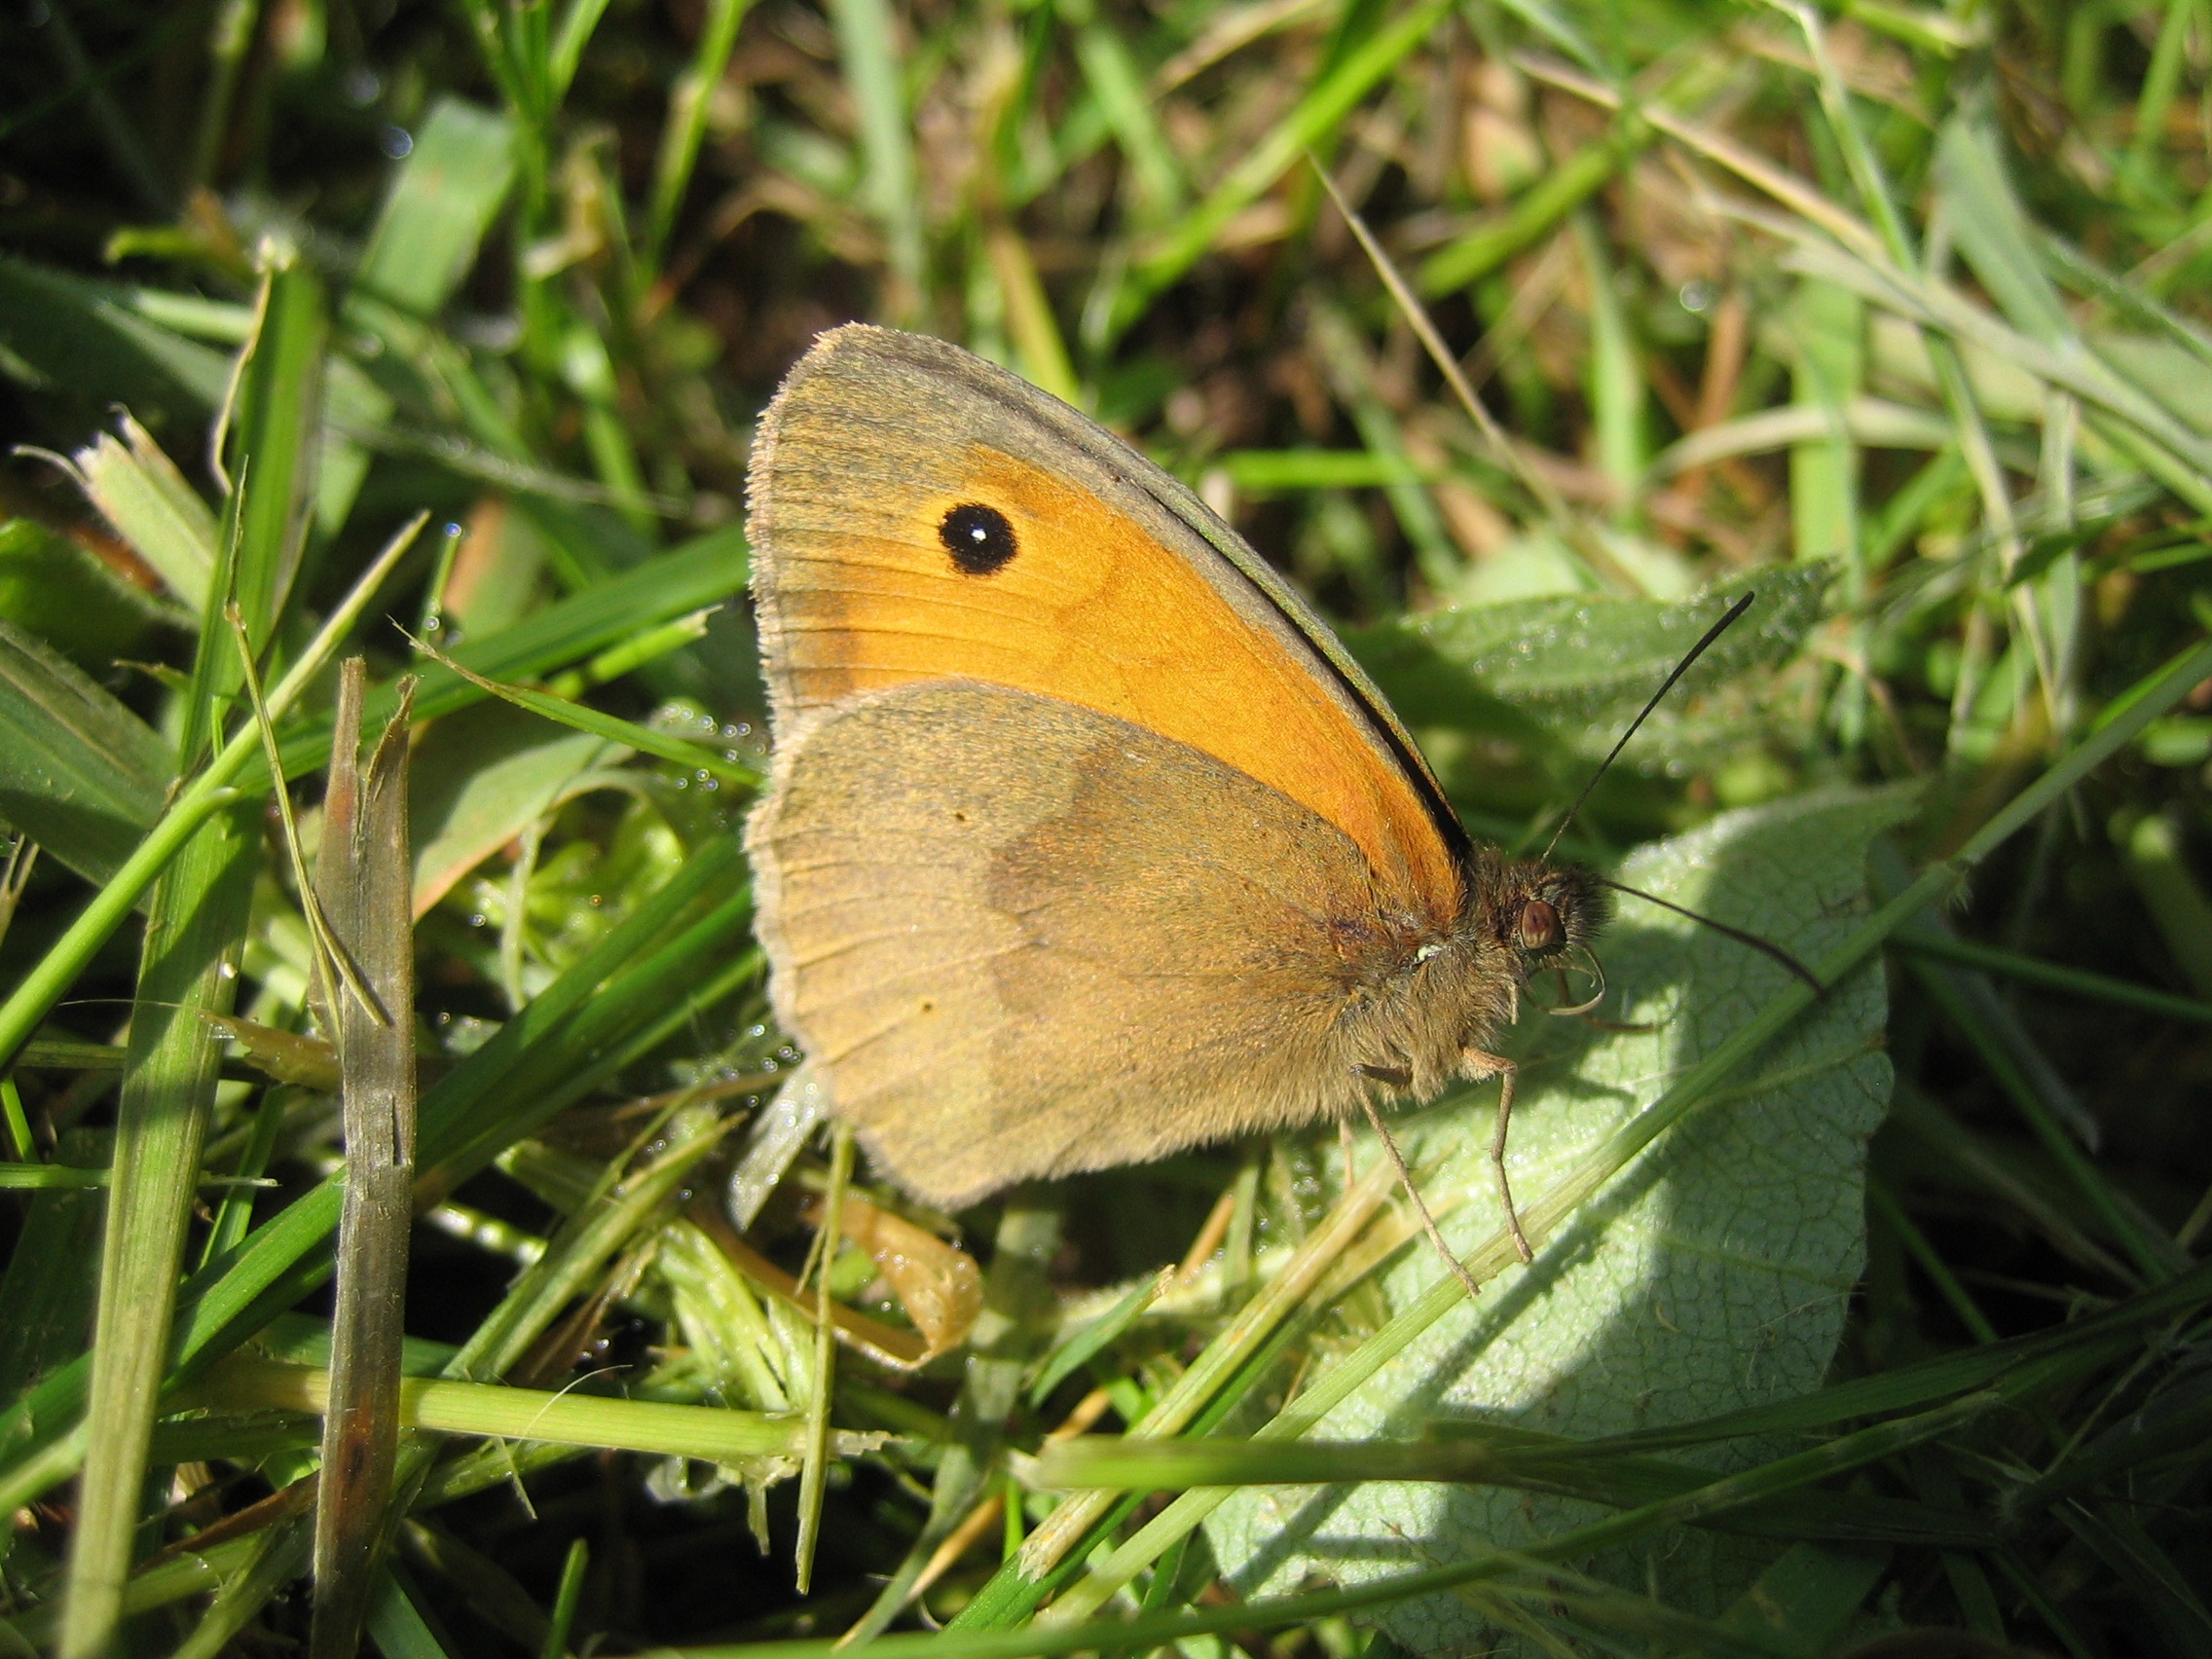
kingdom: Animalia
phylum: Arthropoda
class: Insecta
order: Lepidoptera
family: Nymphalidae
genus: Maniola
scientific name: Maniola jurtina
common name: Græsrandøje
